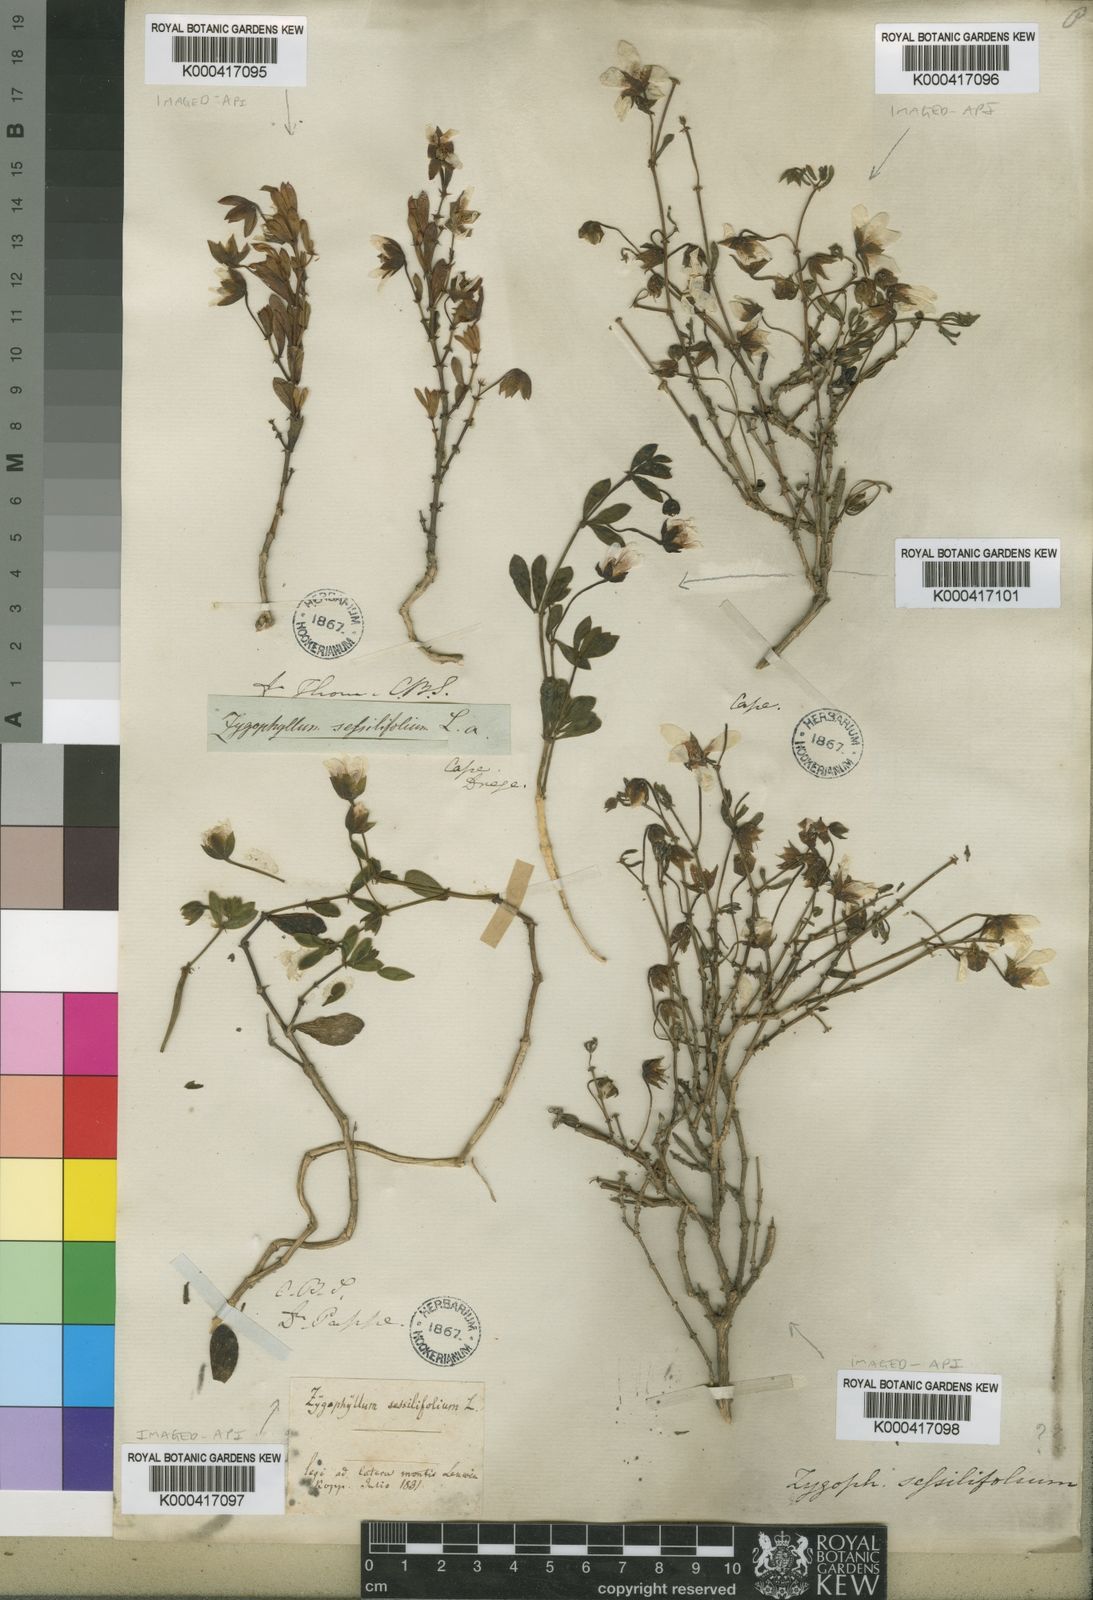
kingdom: Plantae
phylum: Tracheophyta
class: Magnoliopsida
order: Zygophyllales
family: Zygophyllaceae
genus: Roepera
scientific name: Roepera sessilifolia
